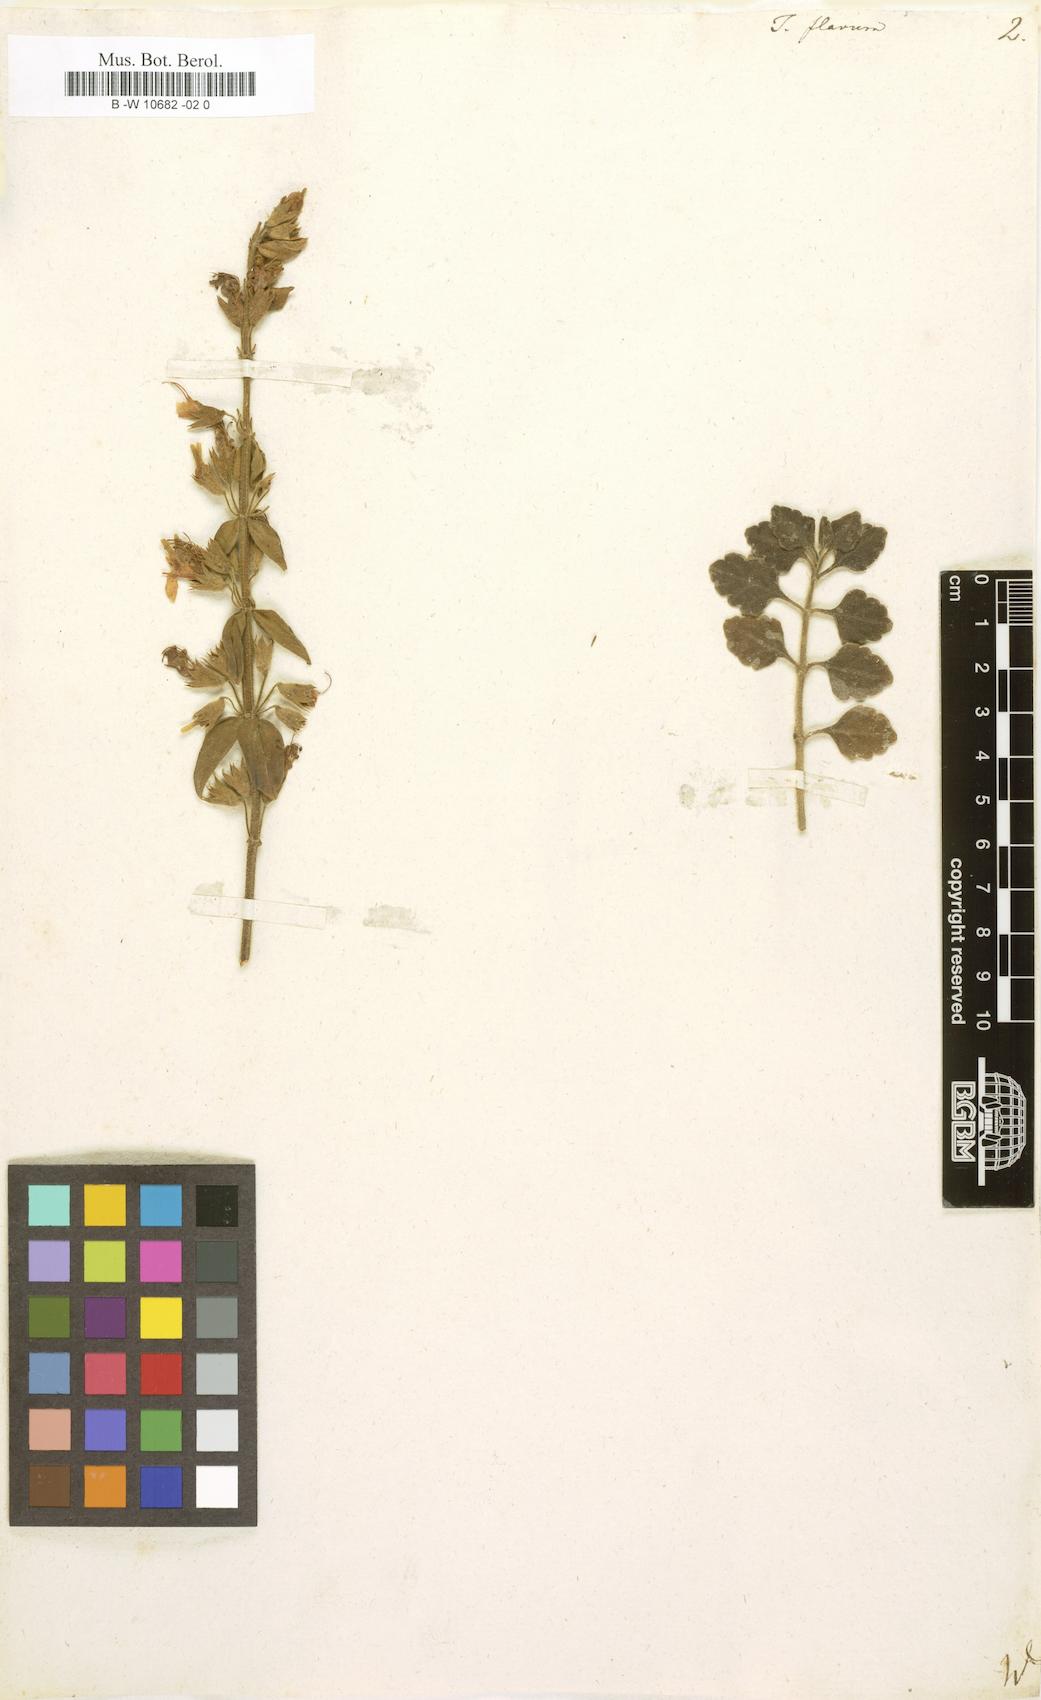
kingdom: Plantae
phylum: Tracheophyta
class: Magnoliopsida
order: Lamiales
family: Lamiaceae
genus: Teucrium
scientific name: Teucrium flavum
